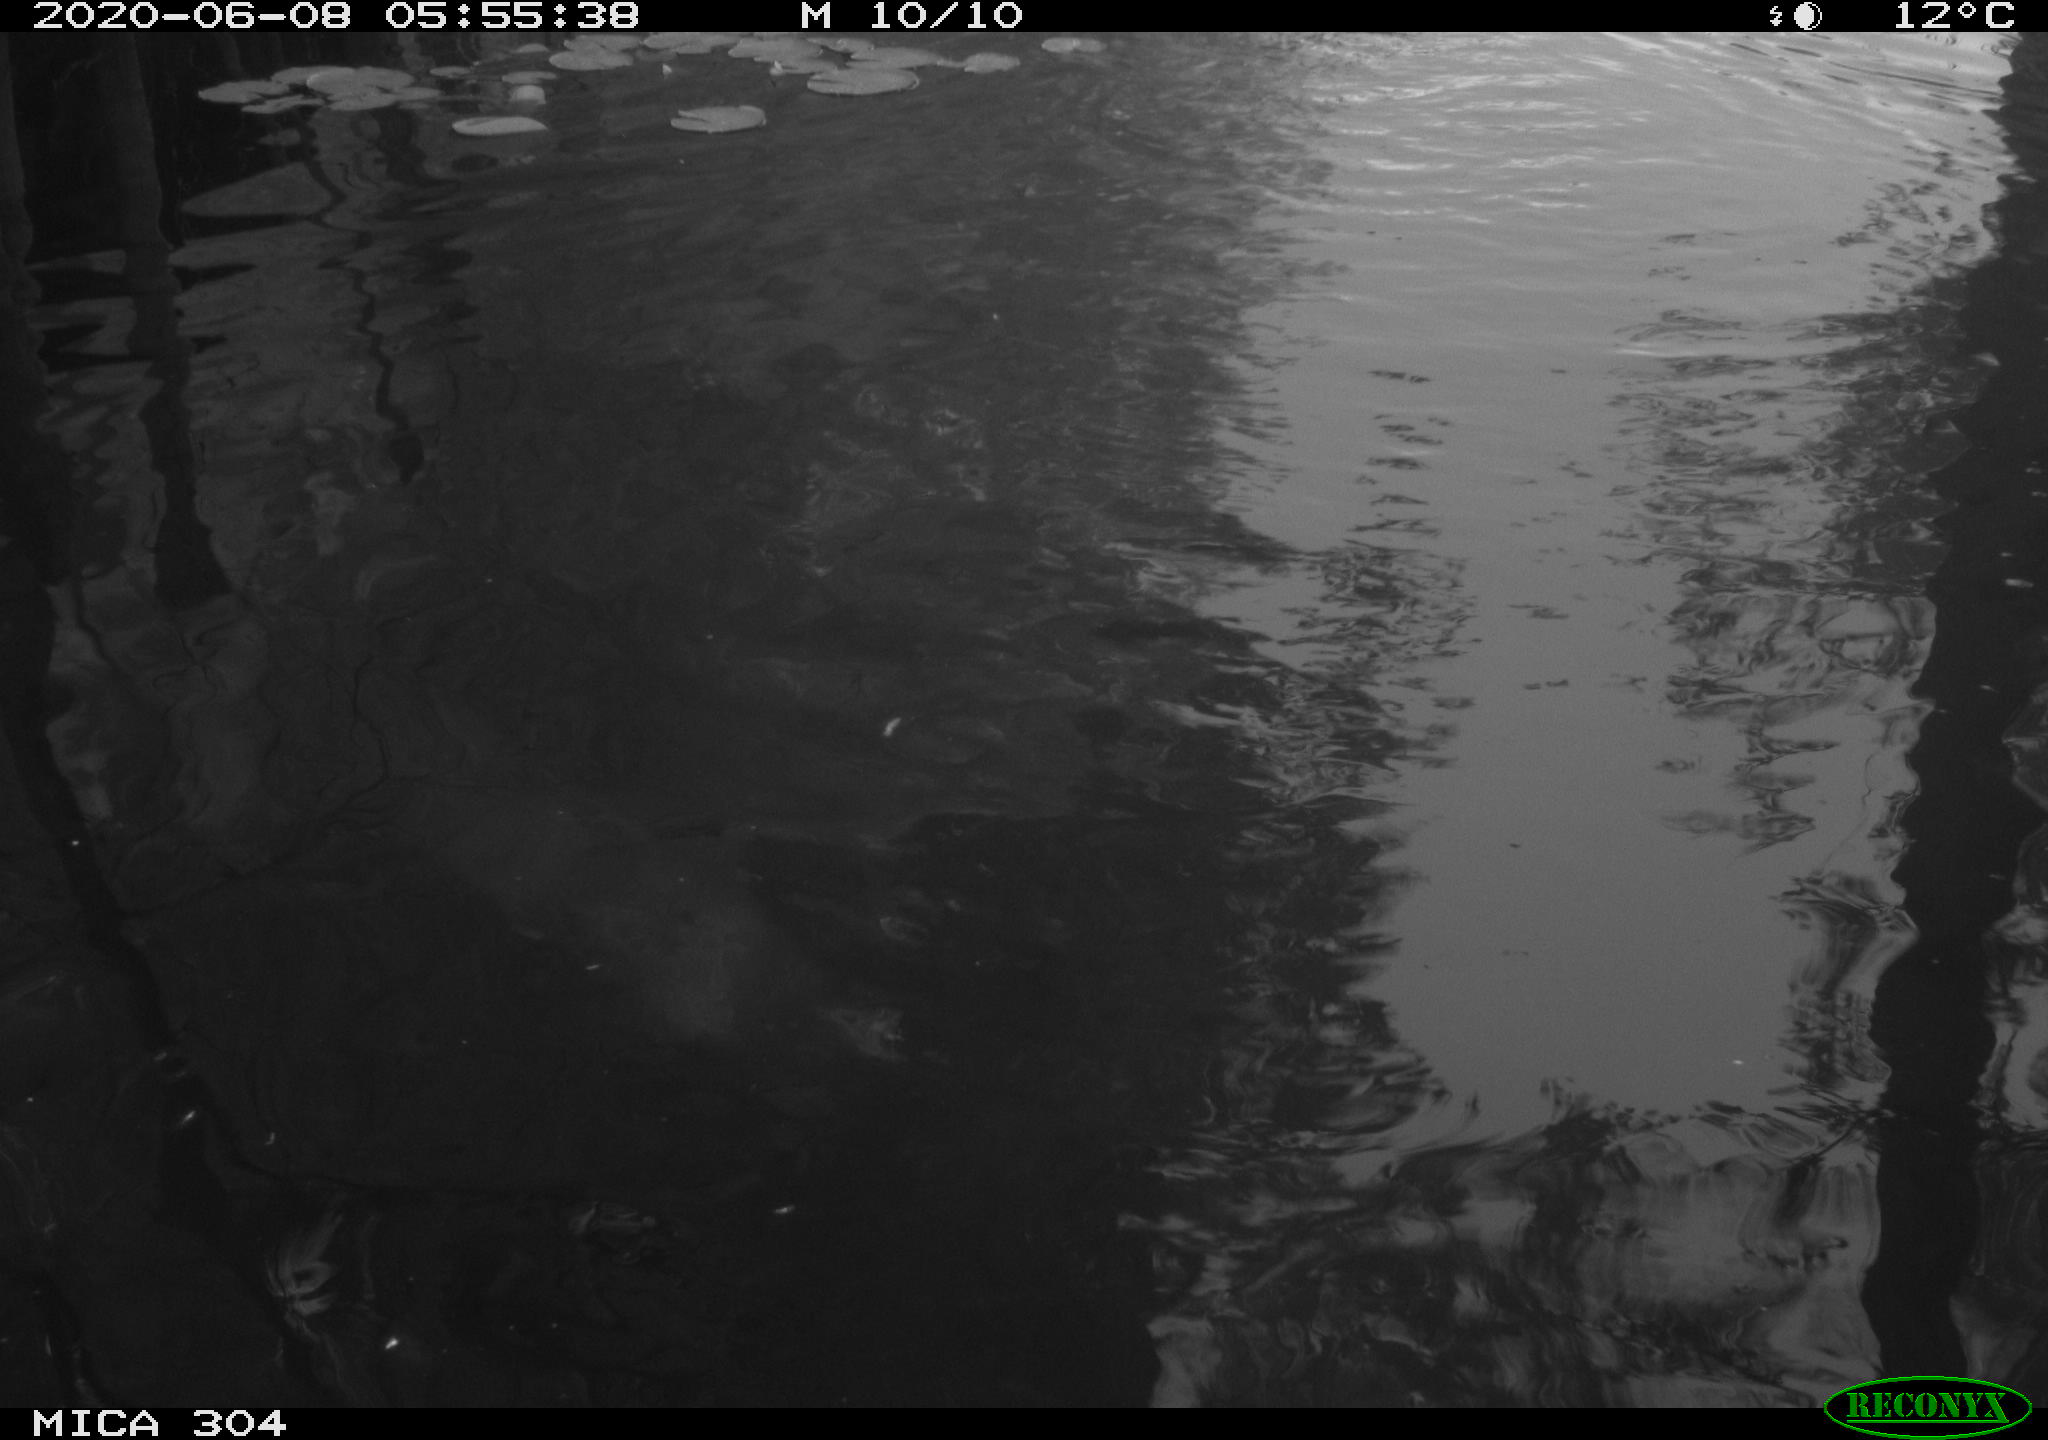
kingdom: Animalia
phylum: Chordata
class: Aves
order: Anseriformes
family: Anatidae
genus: Anas
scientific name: Anas platyrhynchos
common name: Mallard
